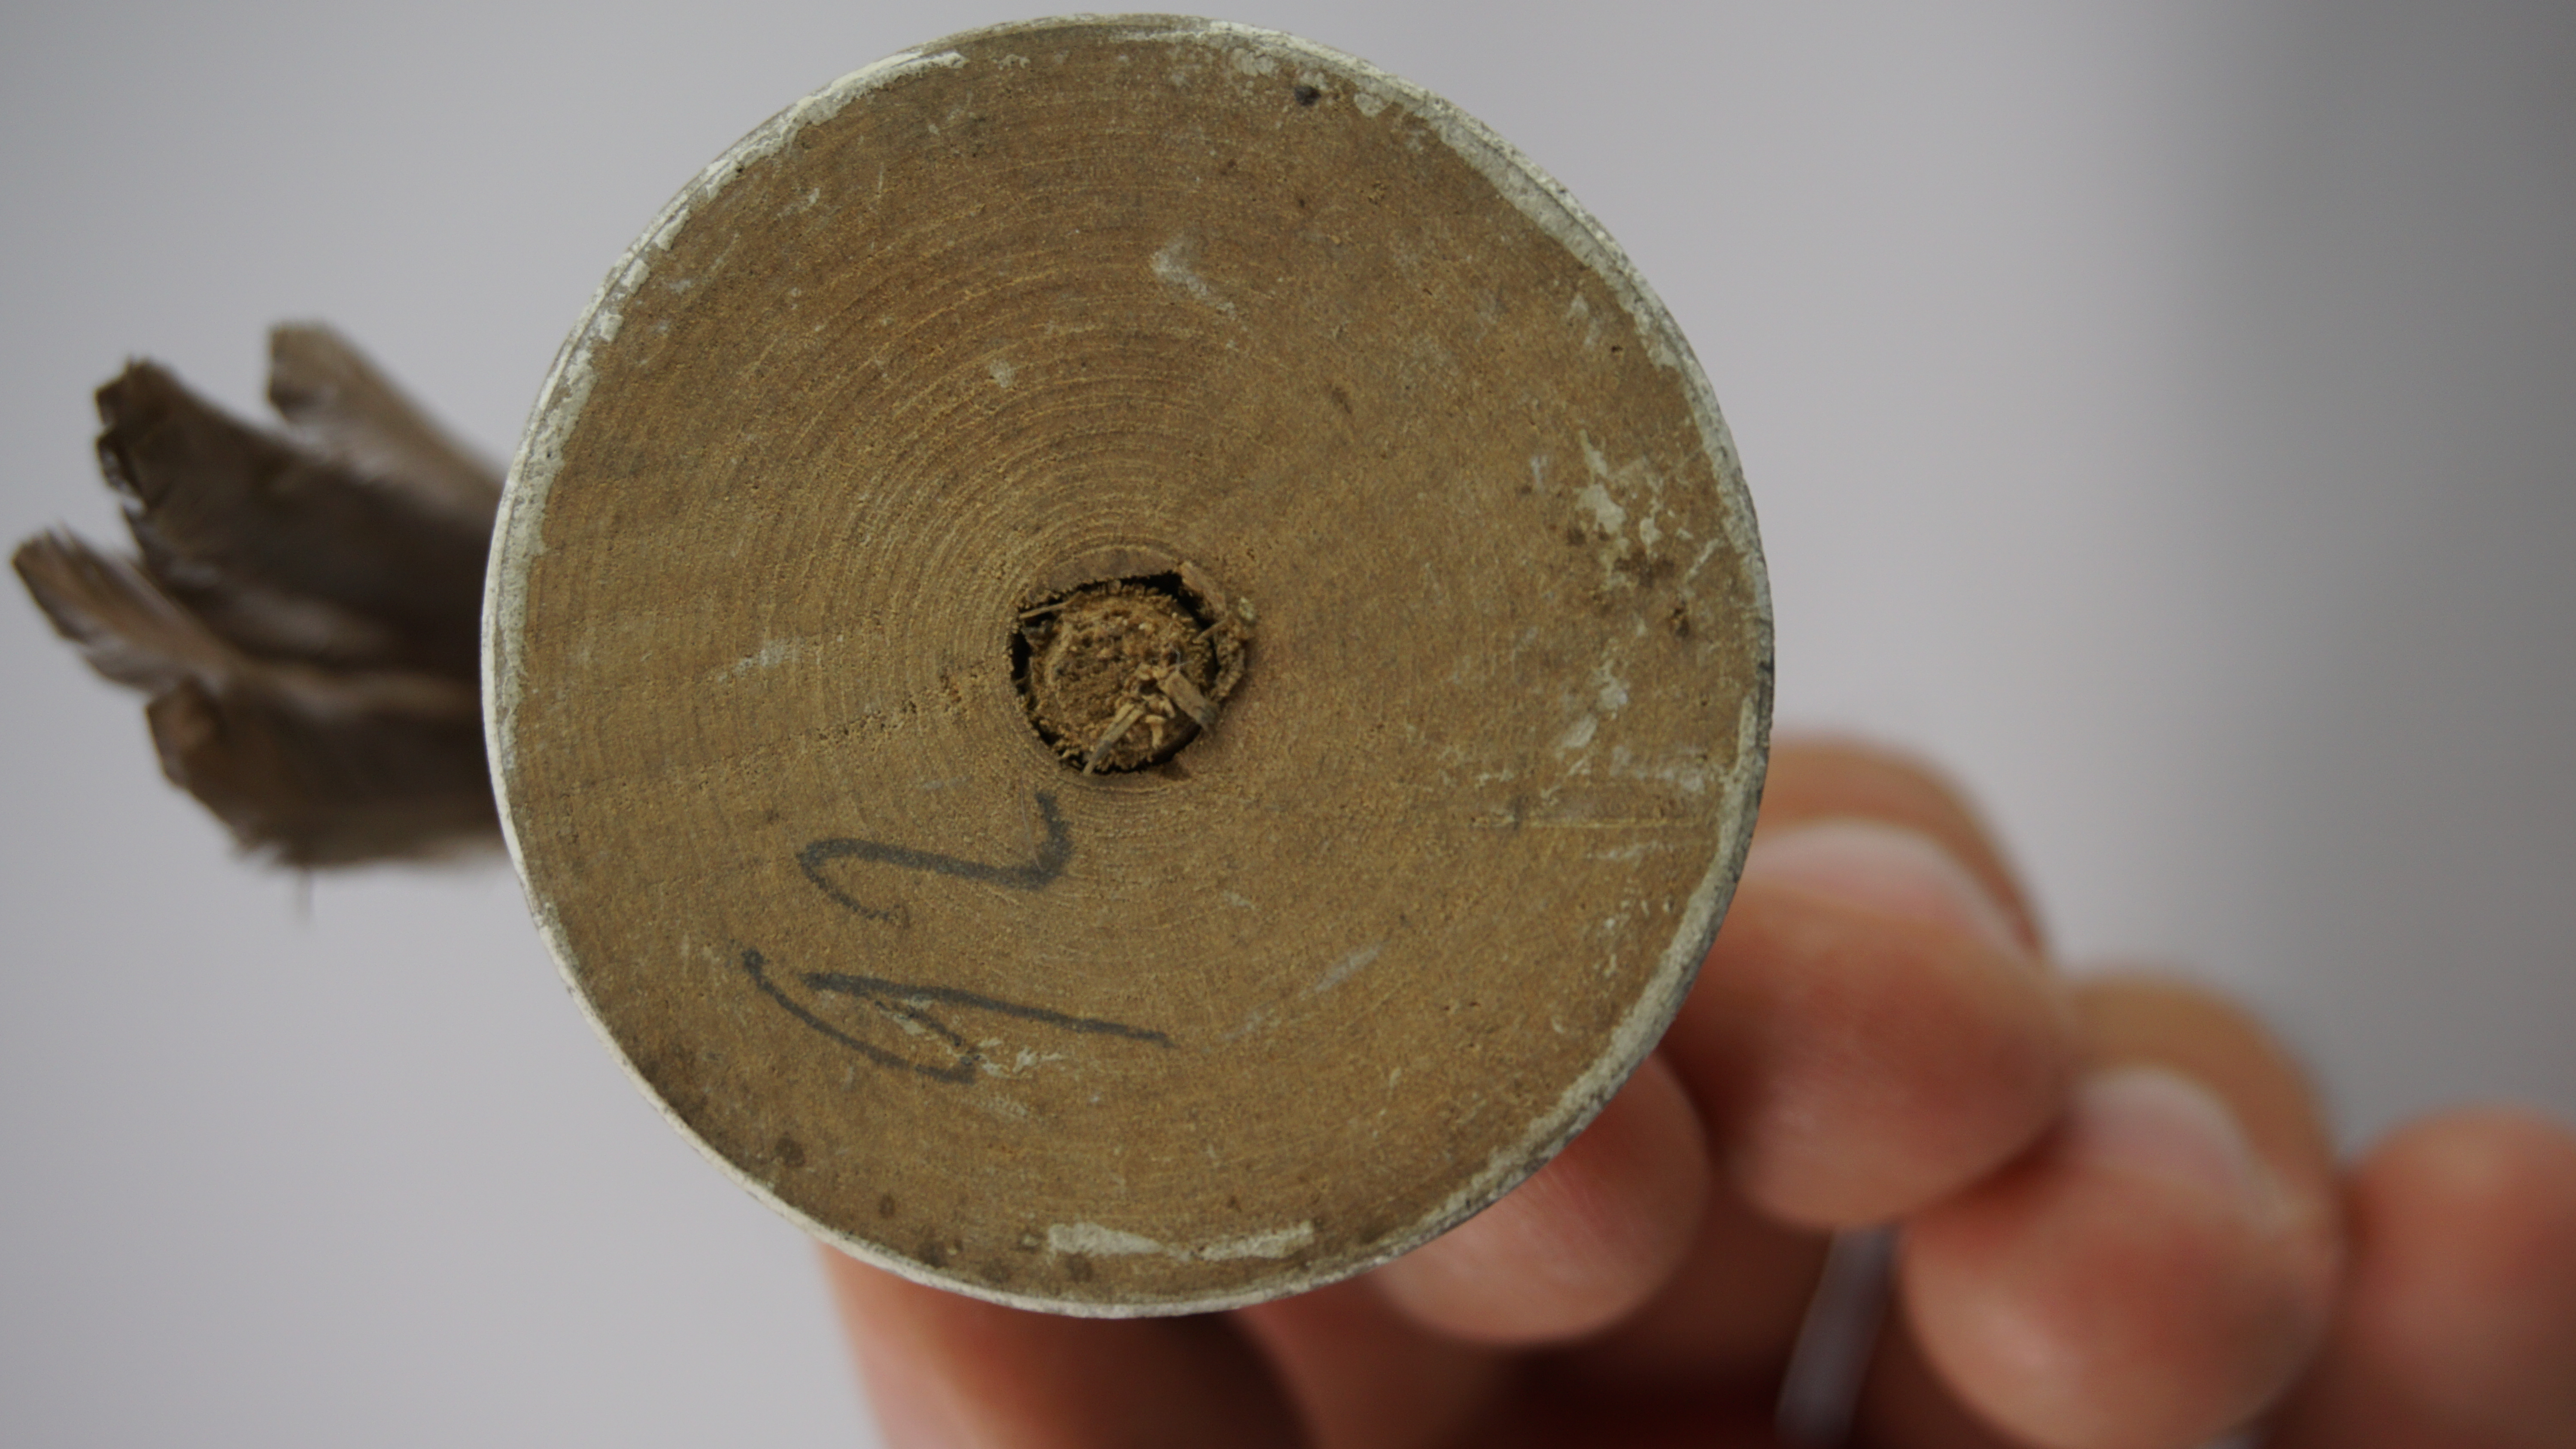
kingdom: Animalia
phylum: Chordata
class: Aves
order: Passeriformes
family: Tyrannidae
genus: Ochthoeca
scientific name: Ochthoeca cinnamomeiventris
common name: Slaty-backed chat-tyrant
